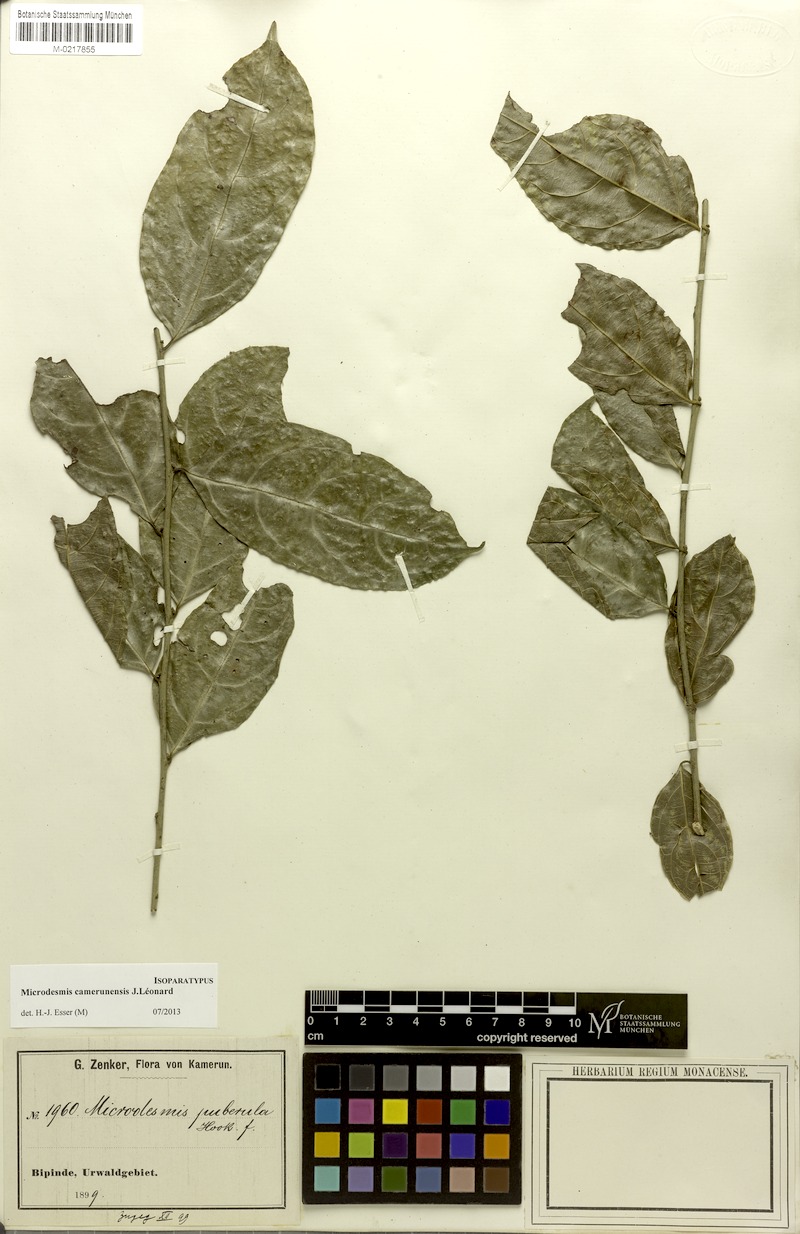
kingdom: Plantae
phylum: Tracheophyta
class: Magnoliopsida
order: Malpighiales
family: Pandaceae
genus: Microdesmis
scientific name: Microdesmis camerunensis
